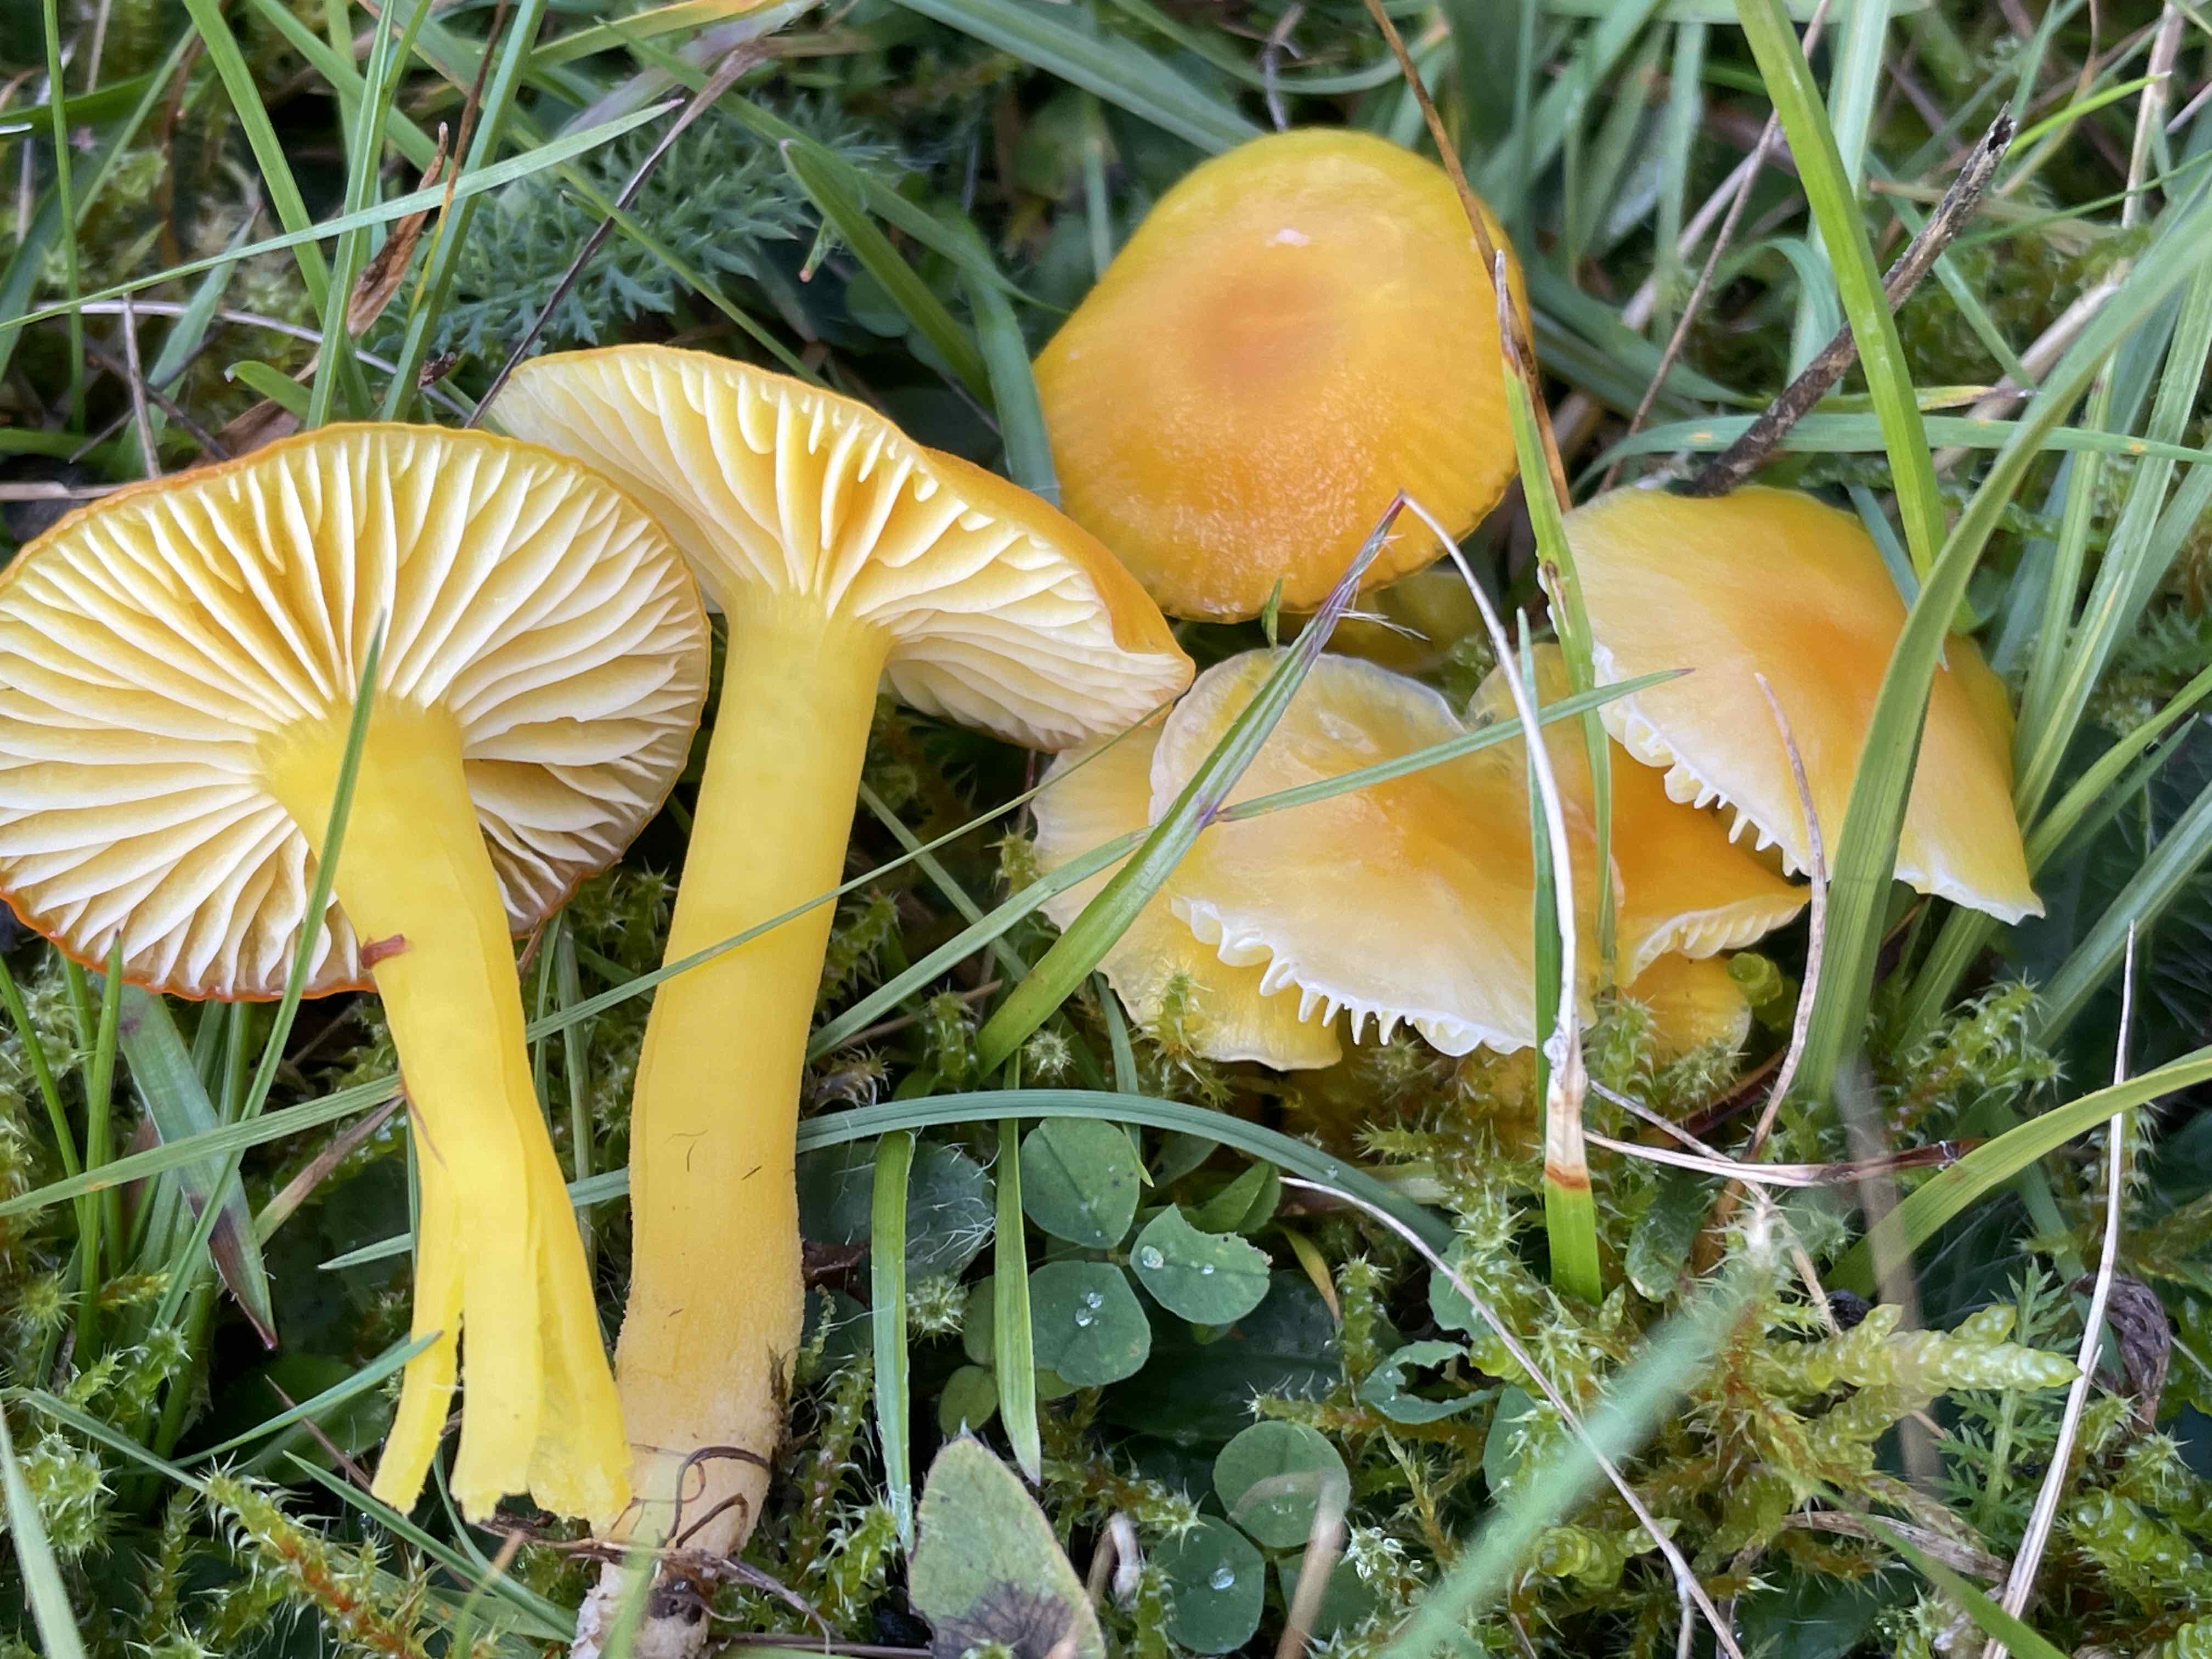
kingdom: Fungi
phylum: Basidiomycota
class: Agaricomycetes
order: Agaricales
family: Hygrophoraceae
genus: Hygrocybe
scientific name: Hygrocybe ceracea
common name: voksgul vokshat
